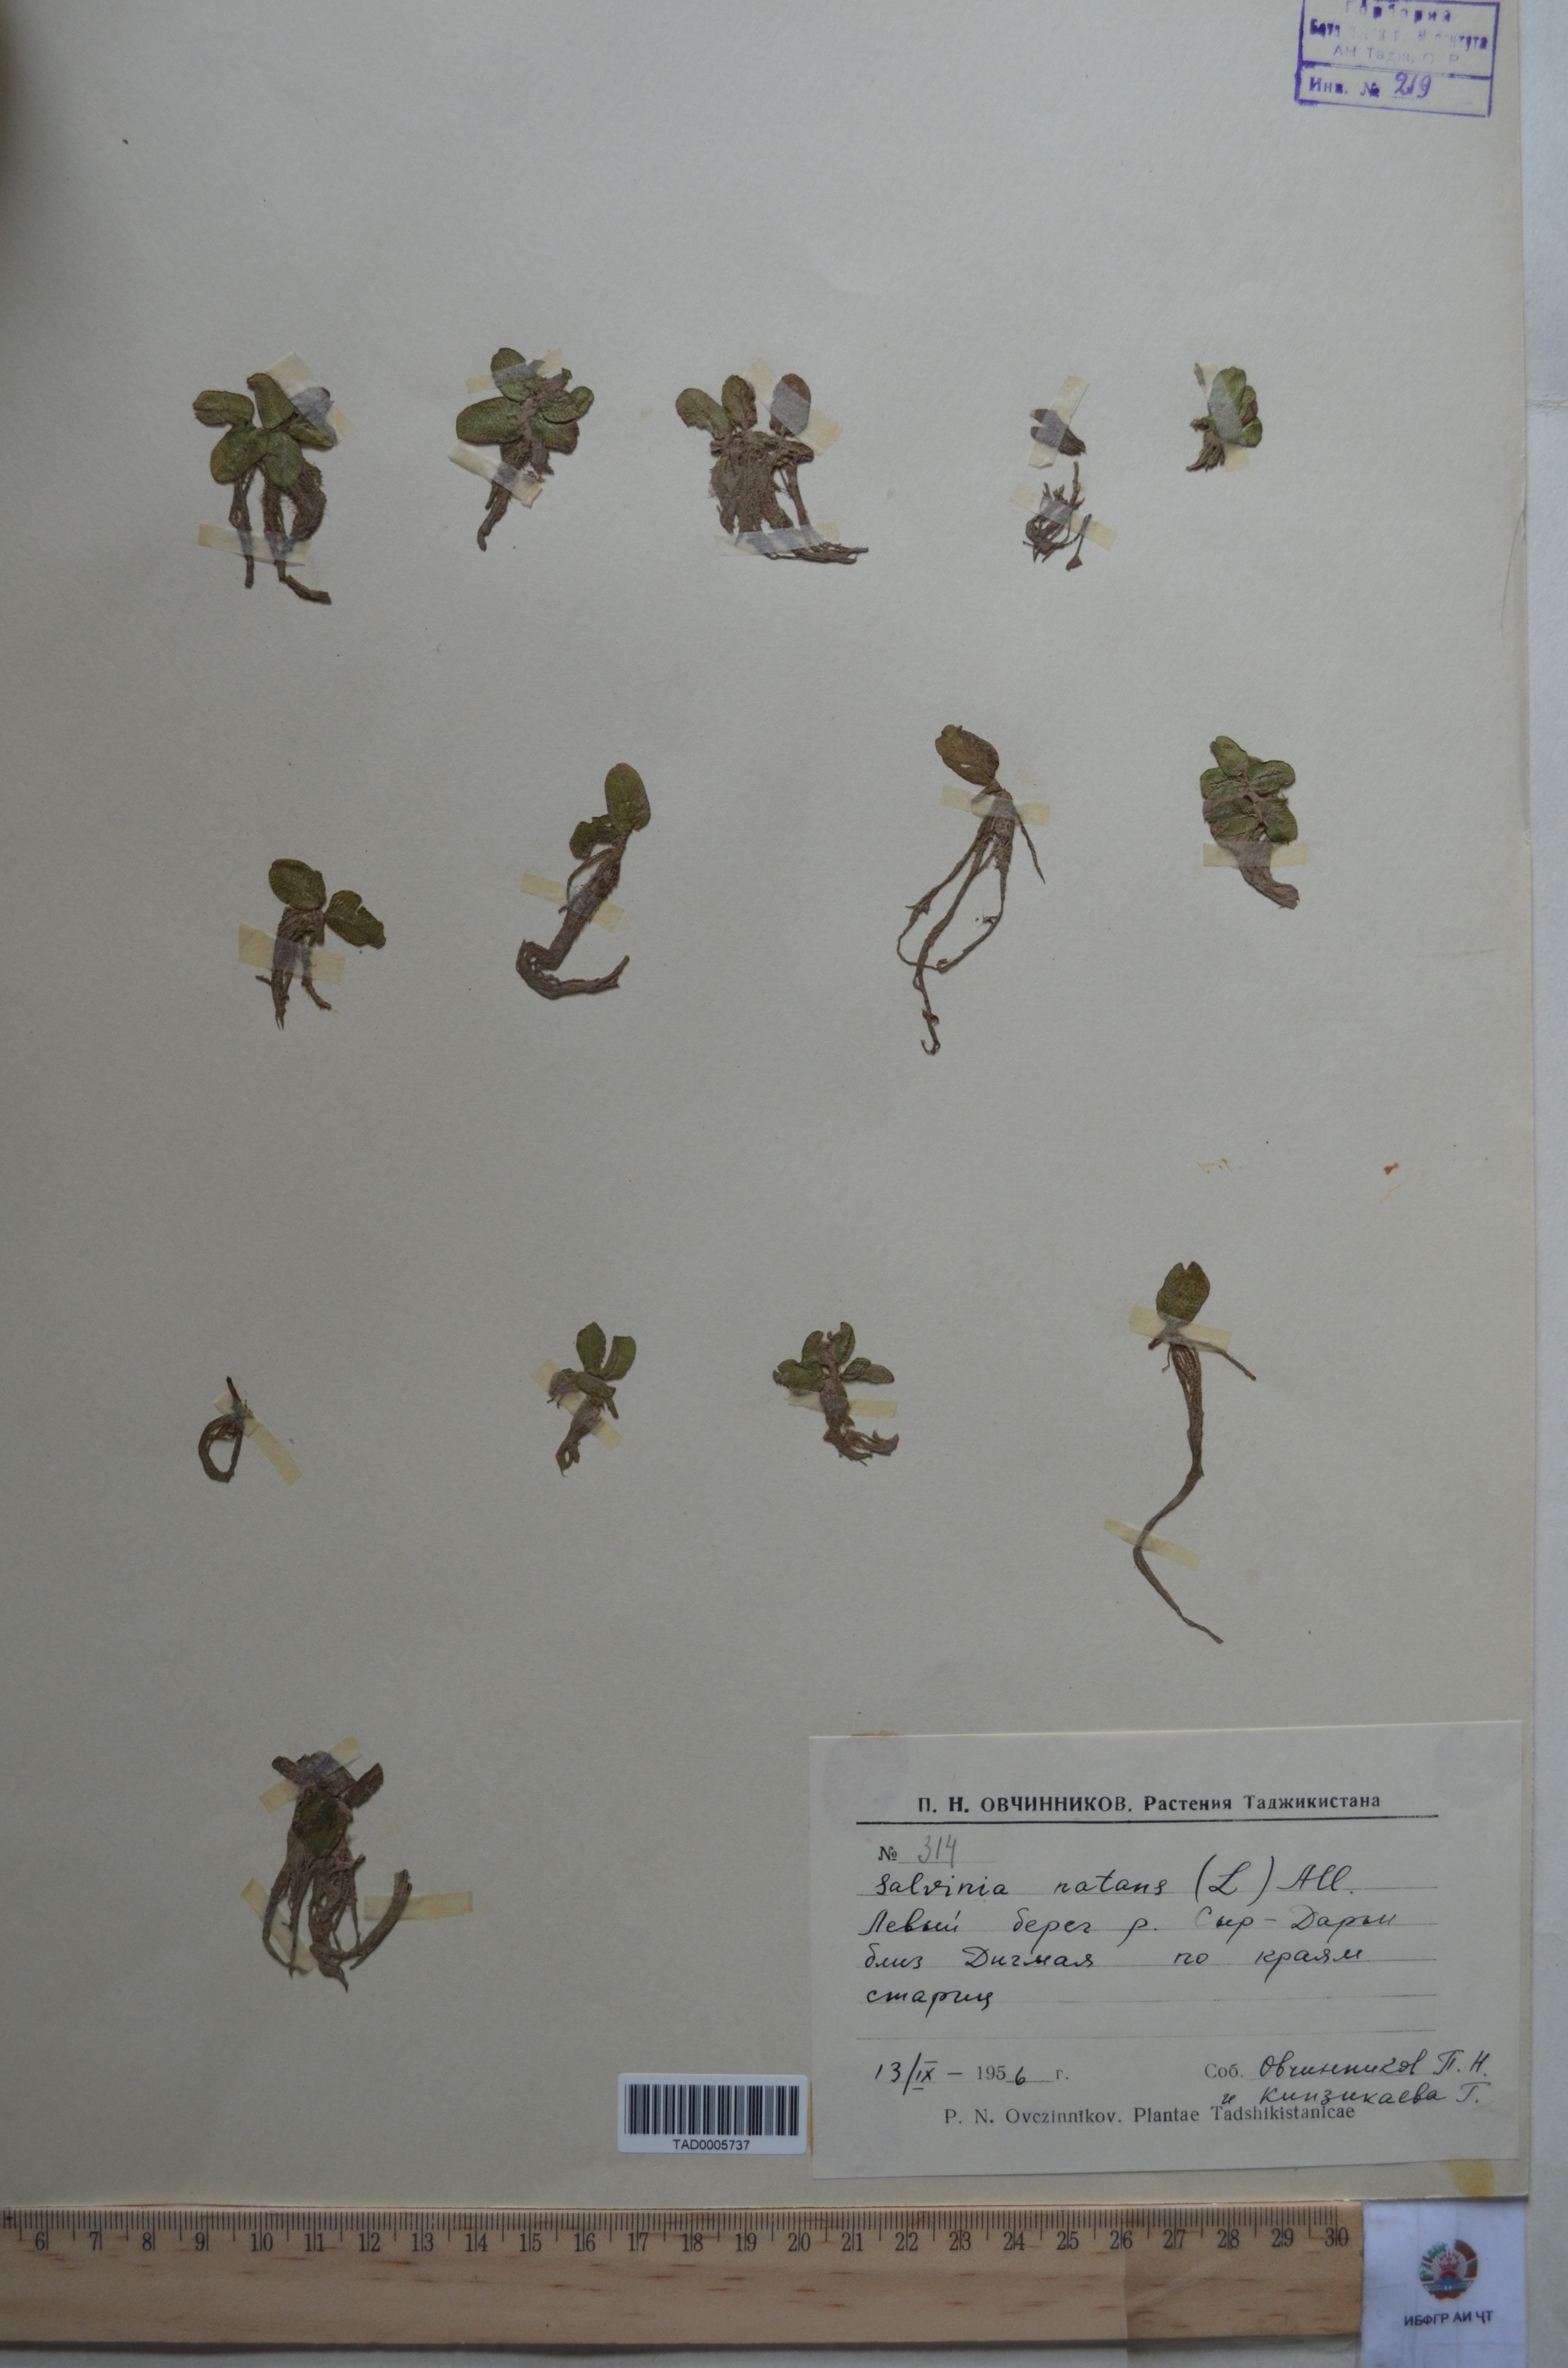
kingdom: Plantae
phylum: Tracheophyta
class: Polypodiopsida
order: Salviniales
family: Salviniaceae
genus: Salvinia
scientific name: Salvinia natans
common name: Floating fern
